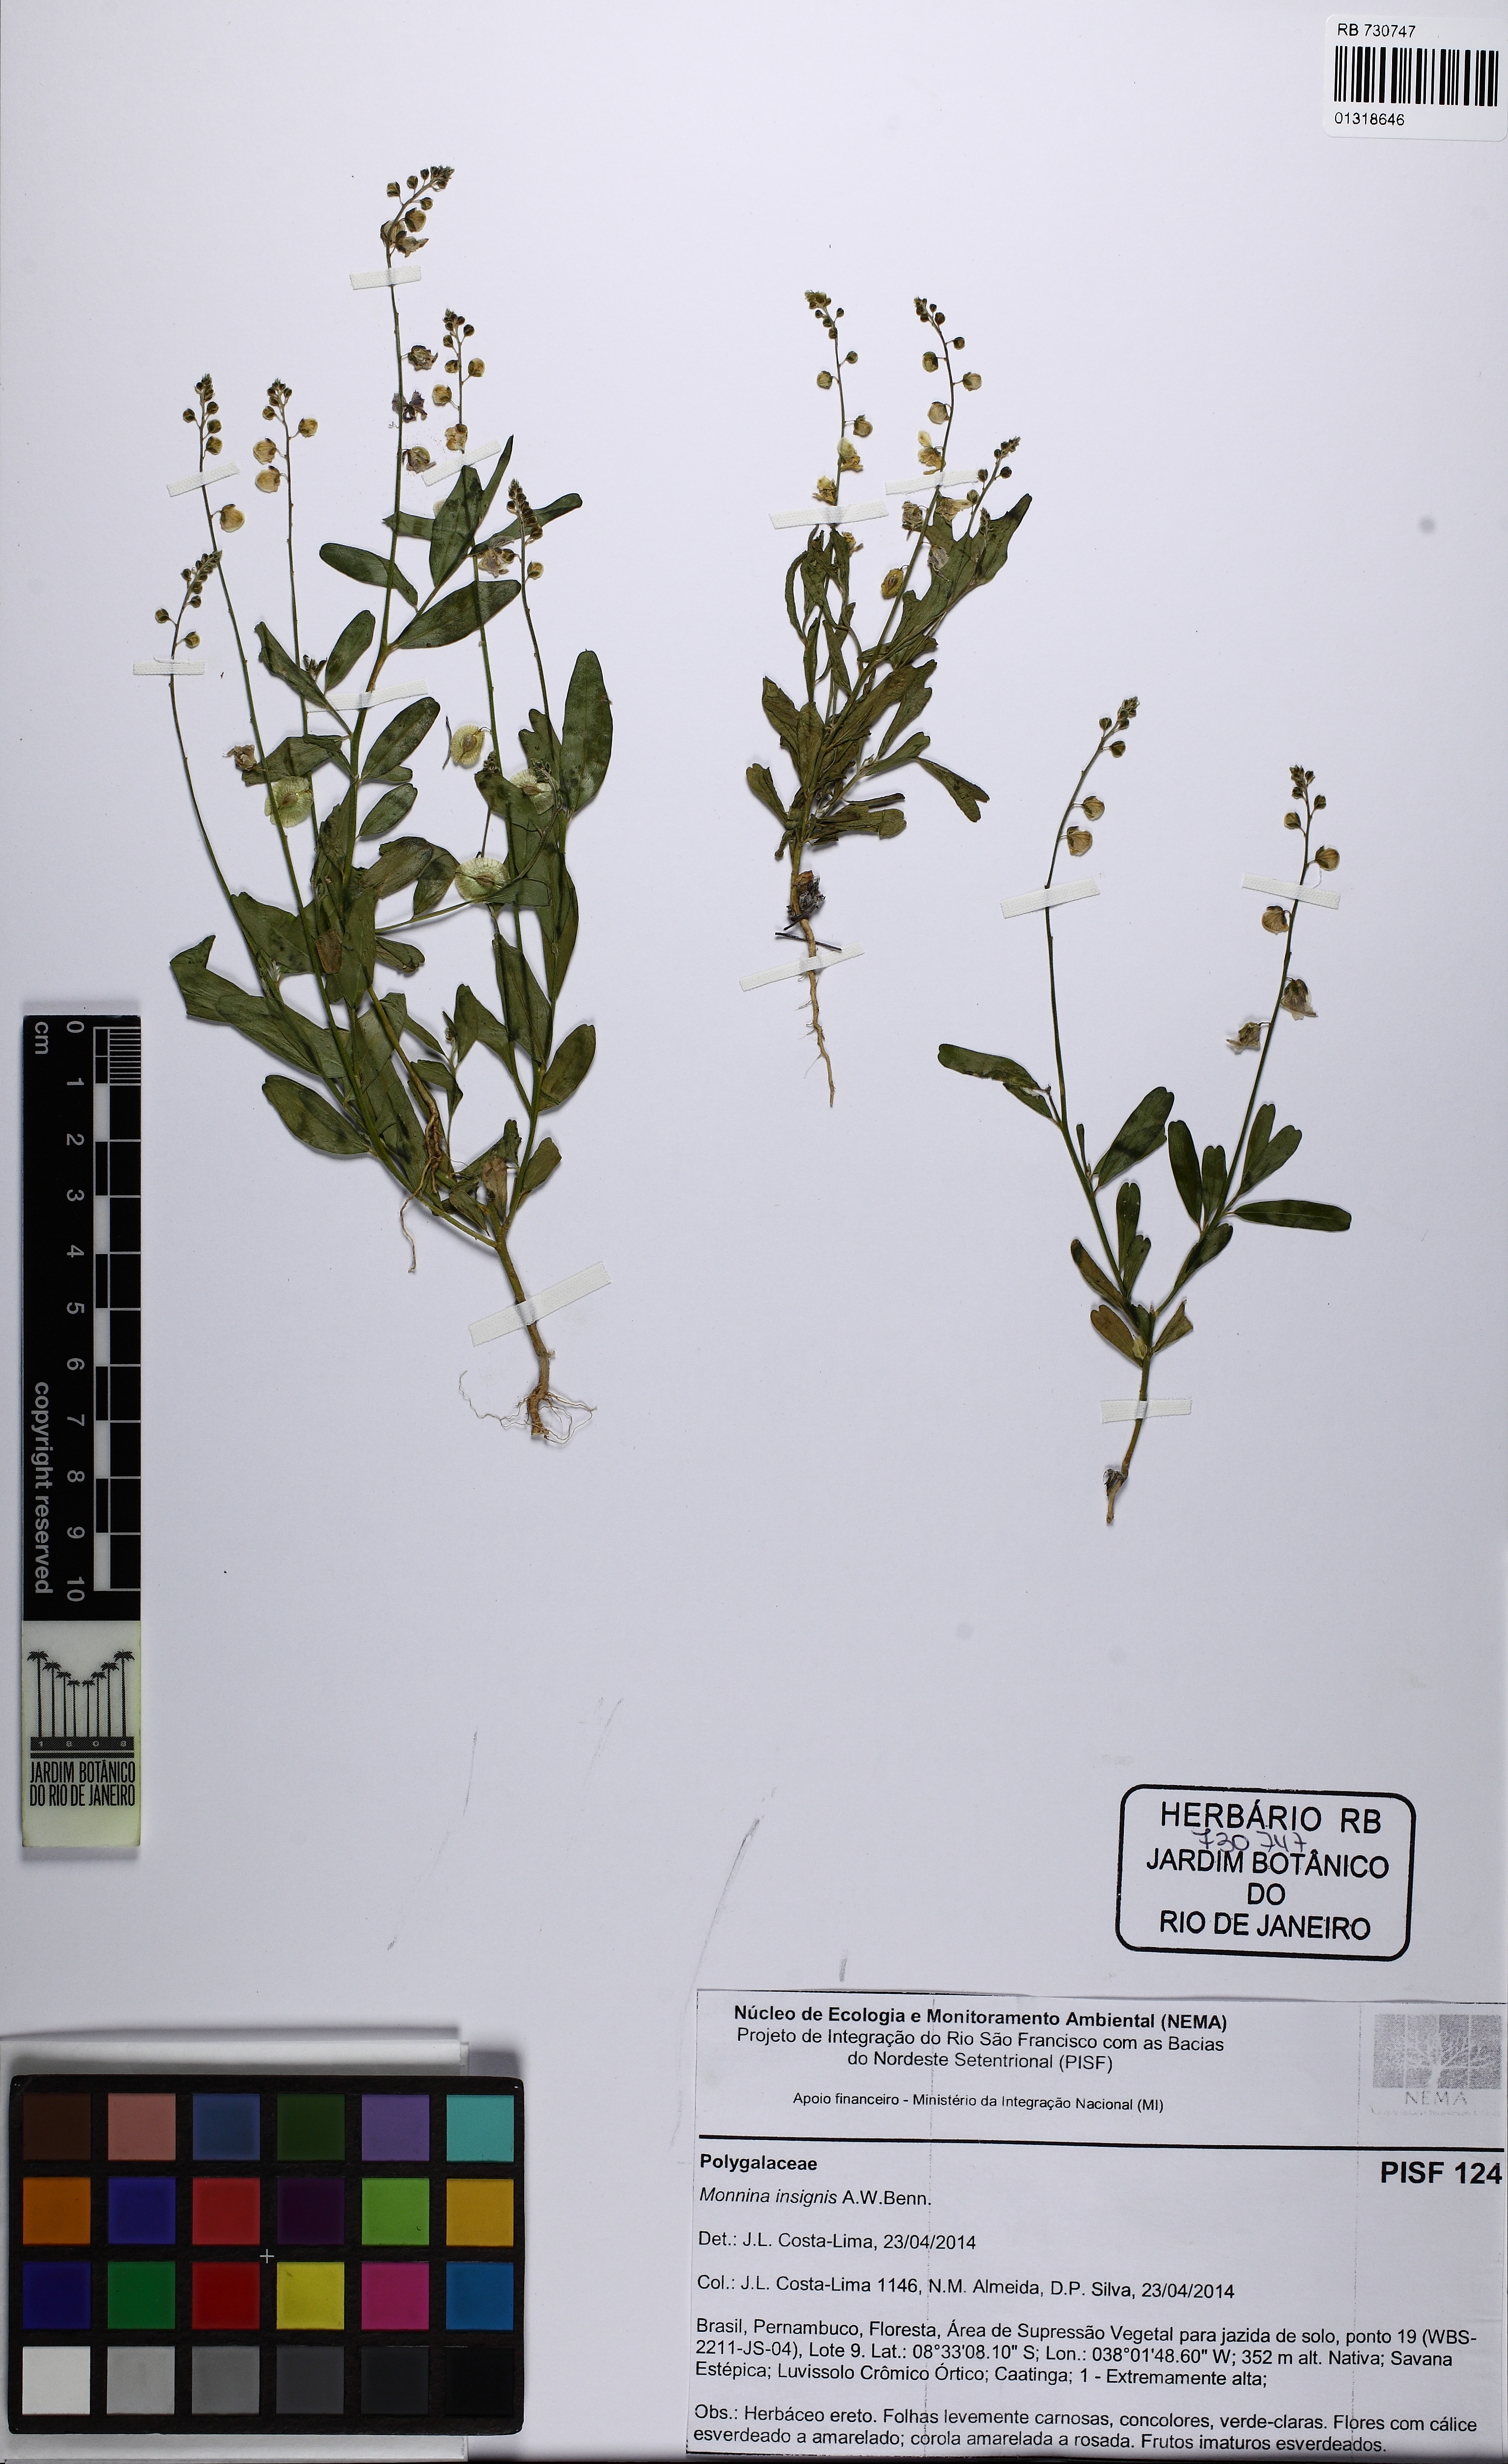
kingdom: Plantae
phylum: Tracheophyta
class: Magnoliopsida
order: Fabales
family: Polygalaceae
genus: Ancylotropis
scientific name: Ancylotropis insignis
